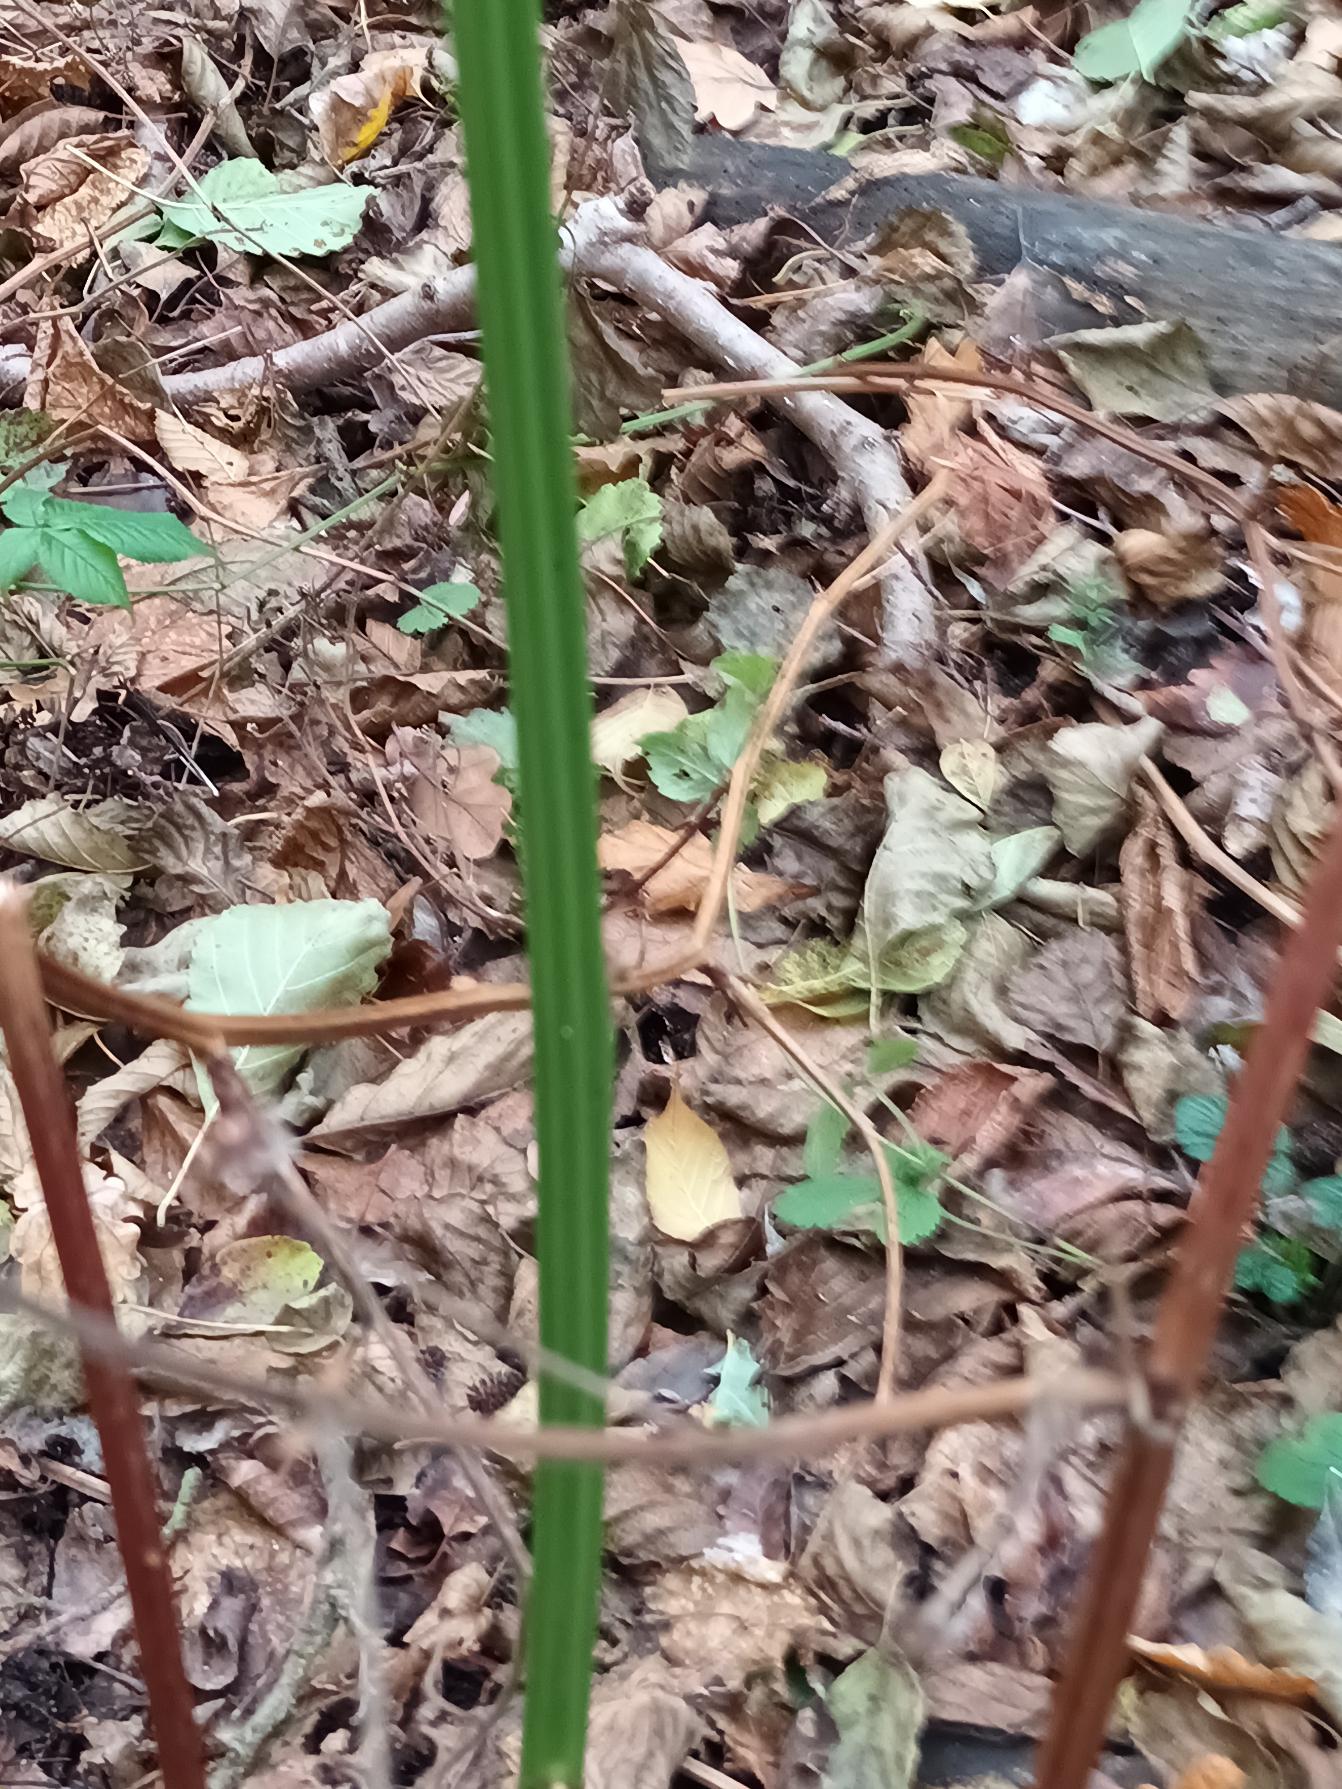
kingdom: Plantae
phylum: Tracheophyta
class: Magnoliopsida
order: Rosales
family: Rosaceae
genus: Rubus
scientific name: Rubus canadensis
